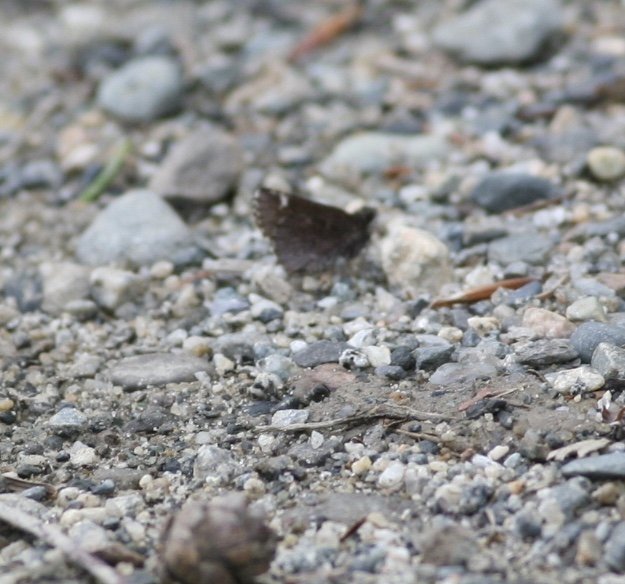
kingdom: Animalia
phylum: Arthropoda
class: Insecta
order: Lepidoptera
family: Hesperiidae
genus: Mastor
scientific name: Mastor vialis
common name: Common Roadside-Skipper
